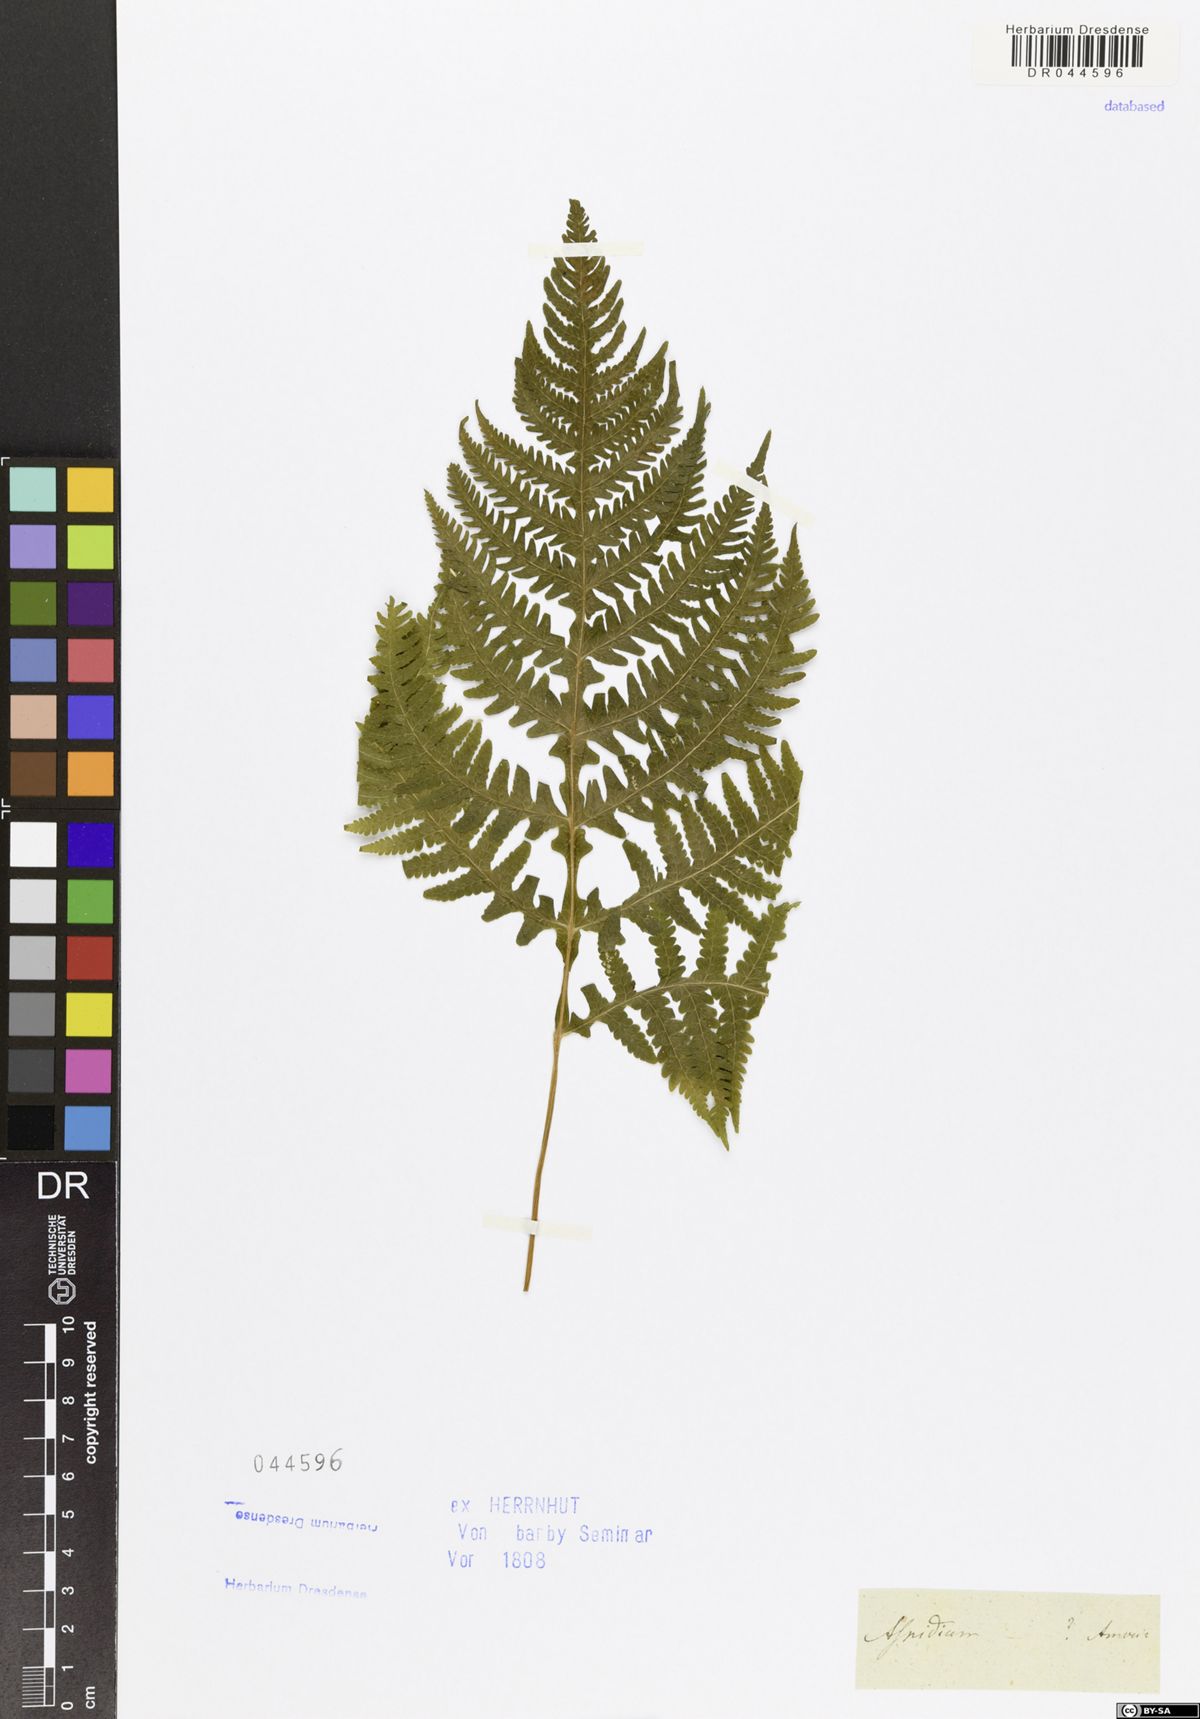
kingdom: Plantae
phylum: Tracheophyta
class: Polypodiopsida
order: Polypodiales
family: Tectariaceae
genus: Tectaria
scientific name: Tectaria
